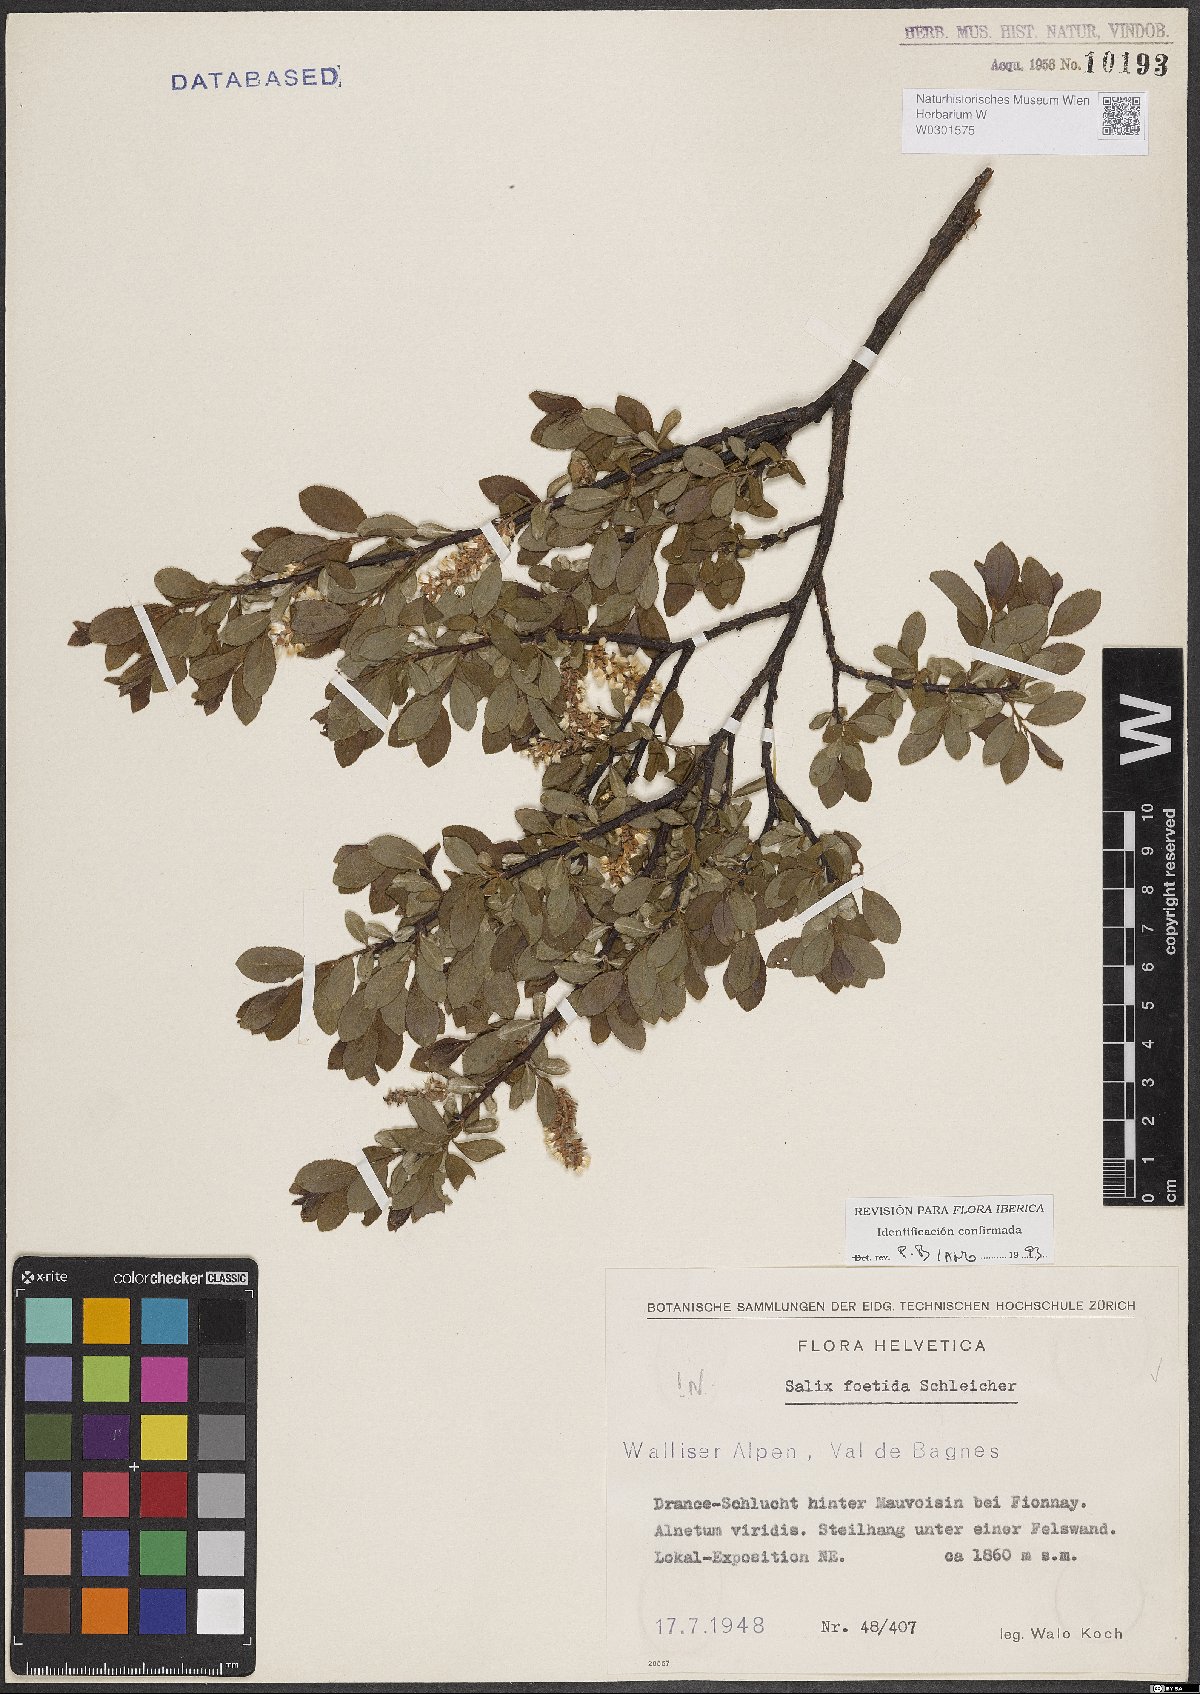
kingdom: Plantae
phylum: Tracheophyta
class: Magnoliopsida
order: Malpighiales
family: Salicaceae
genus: Salix
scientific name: Salix foetida
